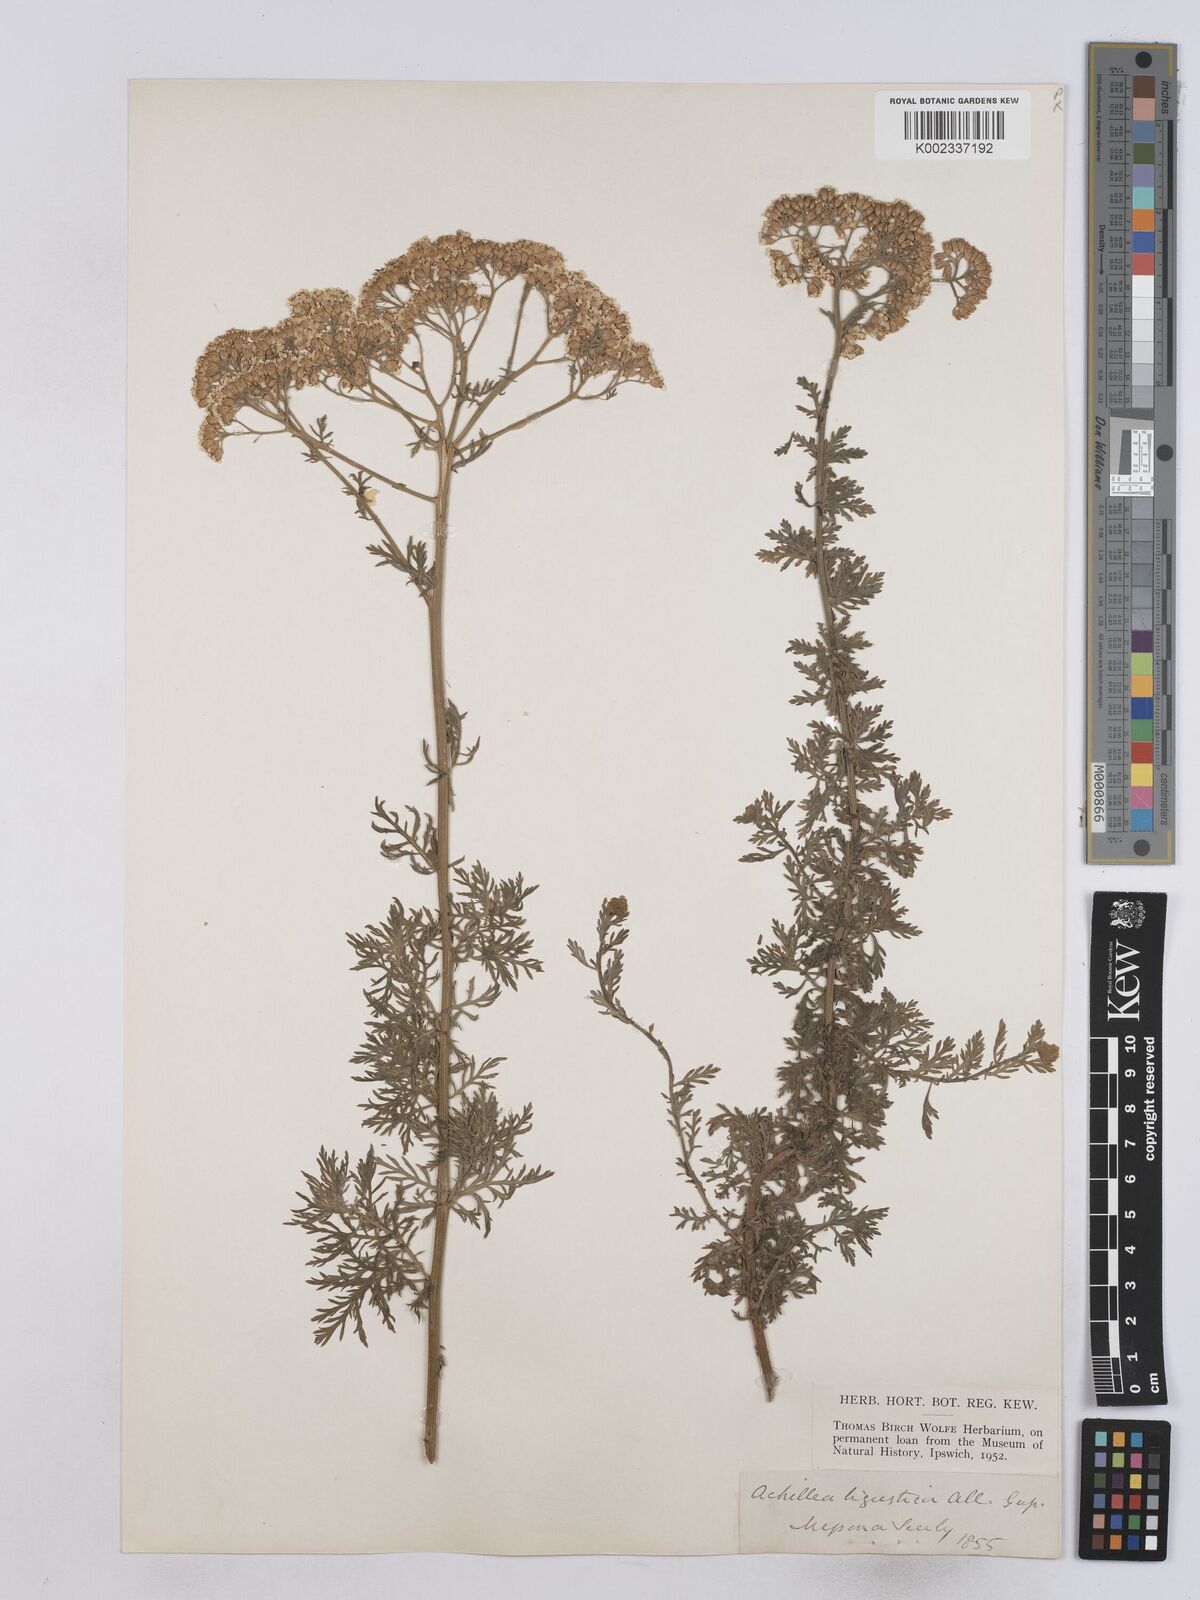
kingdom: Plantae
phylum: Tracheophyta
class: Magnoliopsida
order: Asterales
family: Asteraceae
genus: Achillea
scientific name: Achillea ligustica
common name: Southern yarrow
